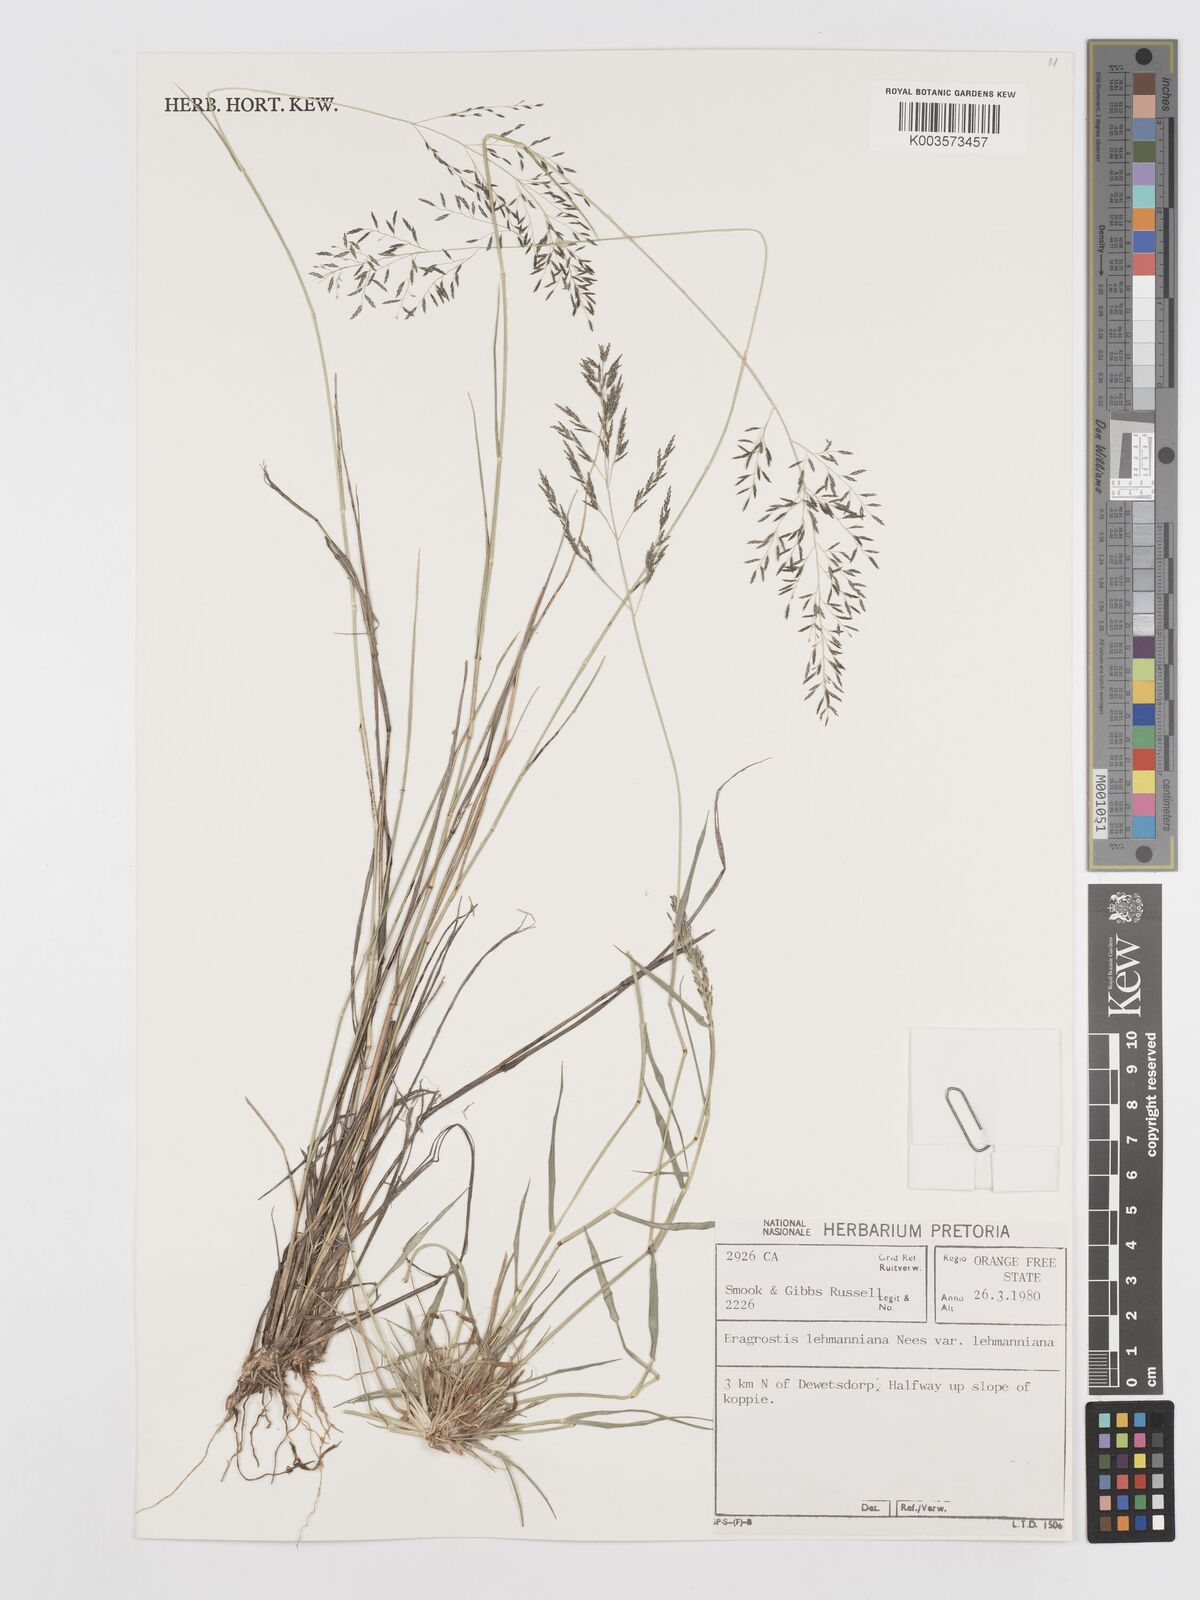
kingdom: Plantae
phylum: Tracheophyta
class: Liliopsida
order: Poales
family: Poaceae
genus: Eragrostis
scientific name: Eragrostis lehmanniana
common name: Lehmann lovegrass
